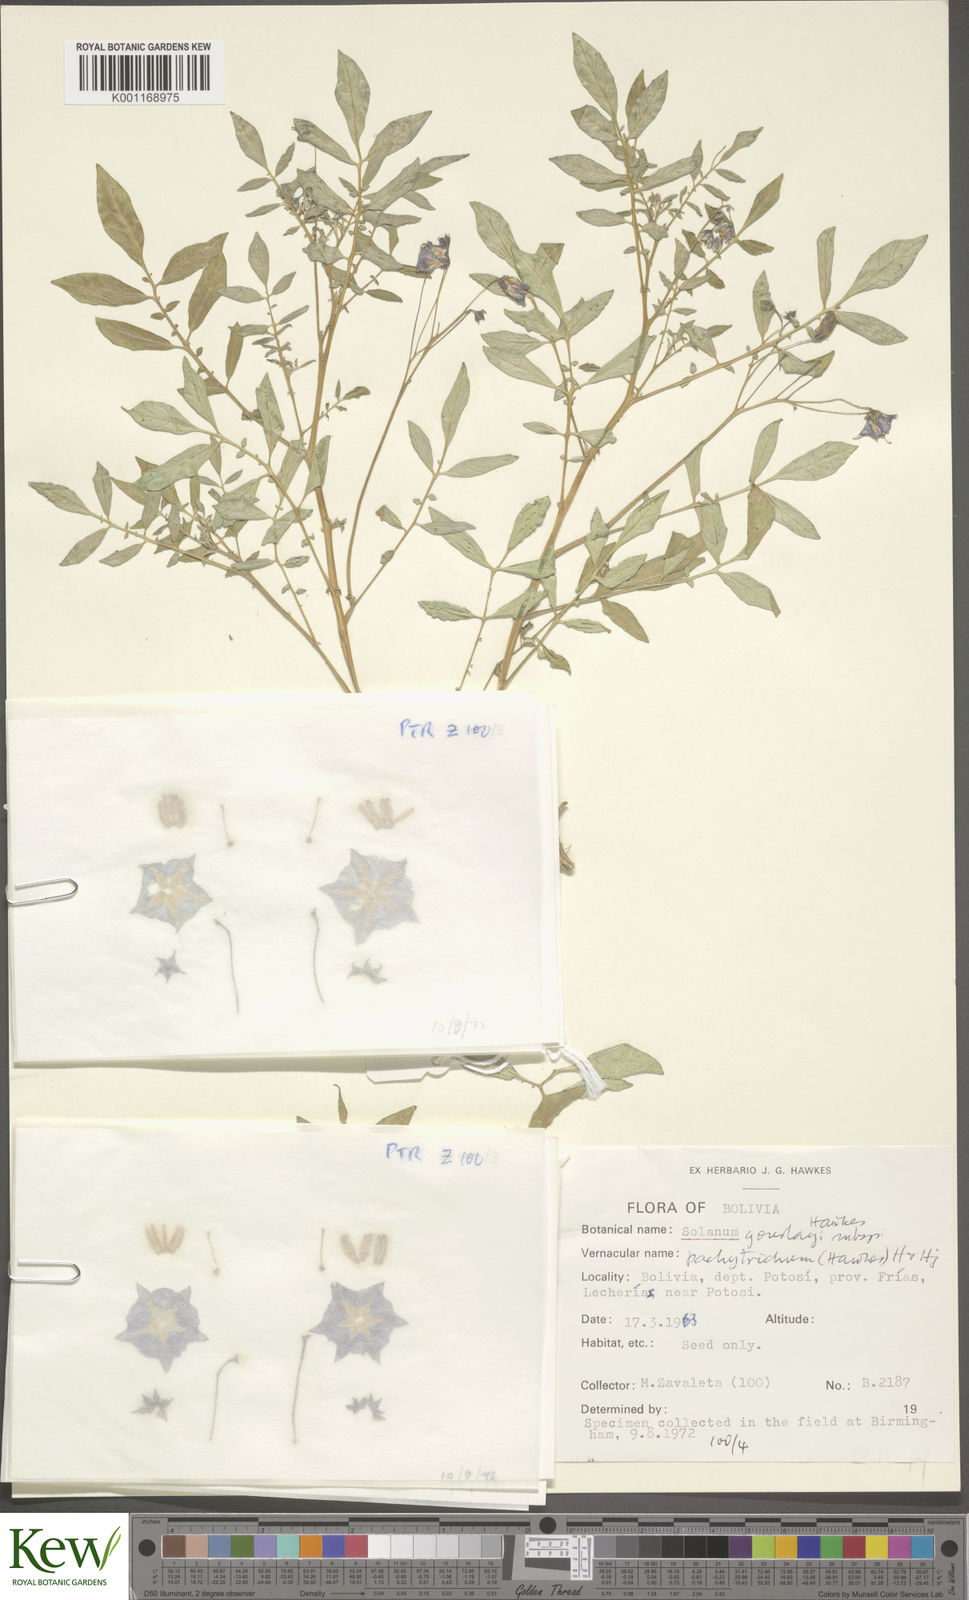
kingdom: Plantae
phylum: Tracheophyta
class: Magnoliopsida
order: Solanales
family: Solanaceae
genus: Solanum
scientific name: Solanum brevicaule
